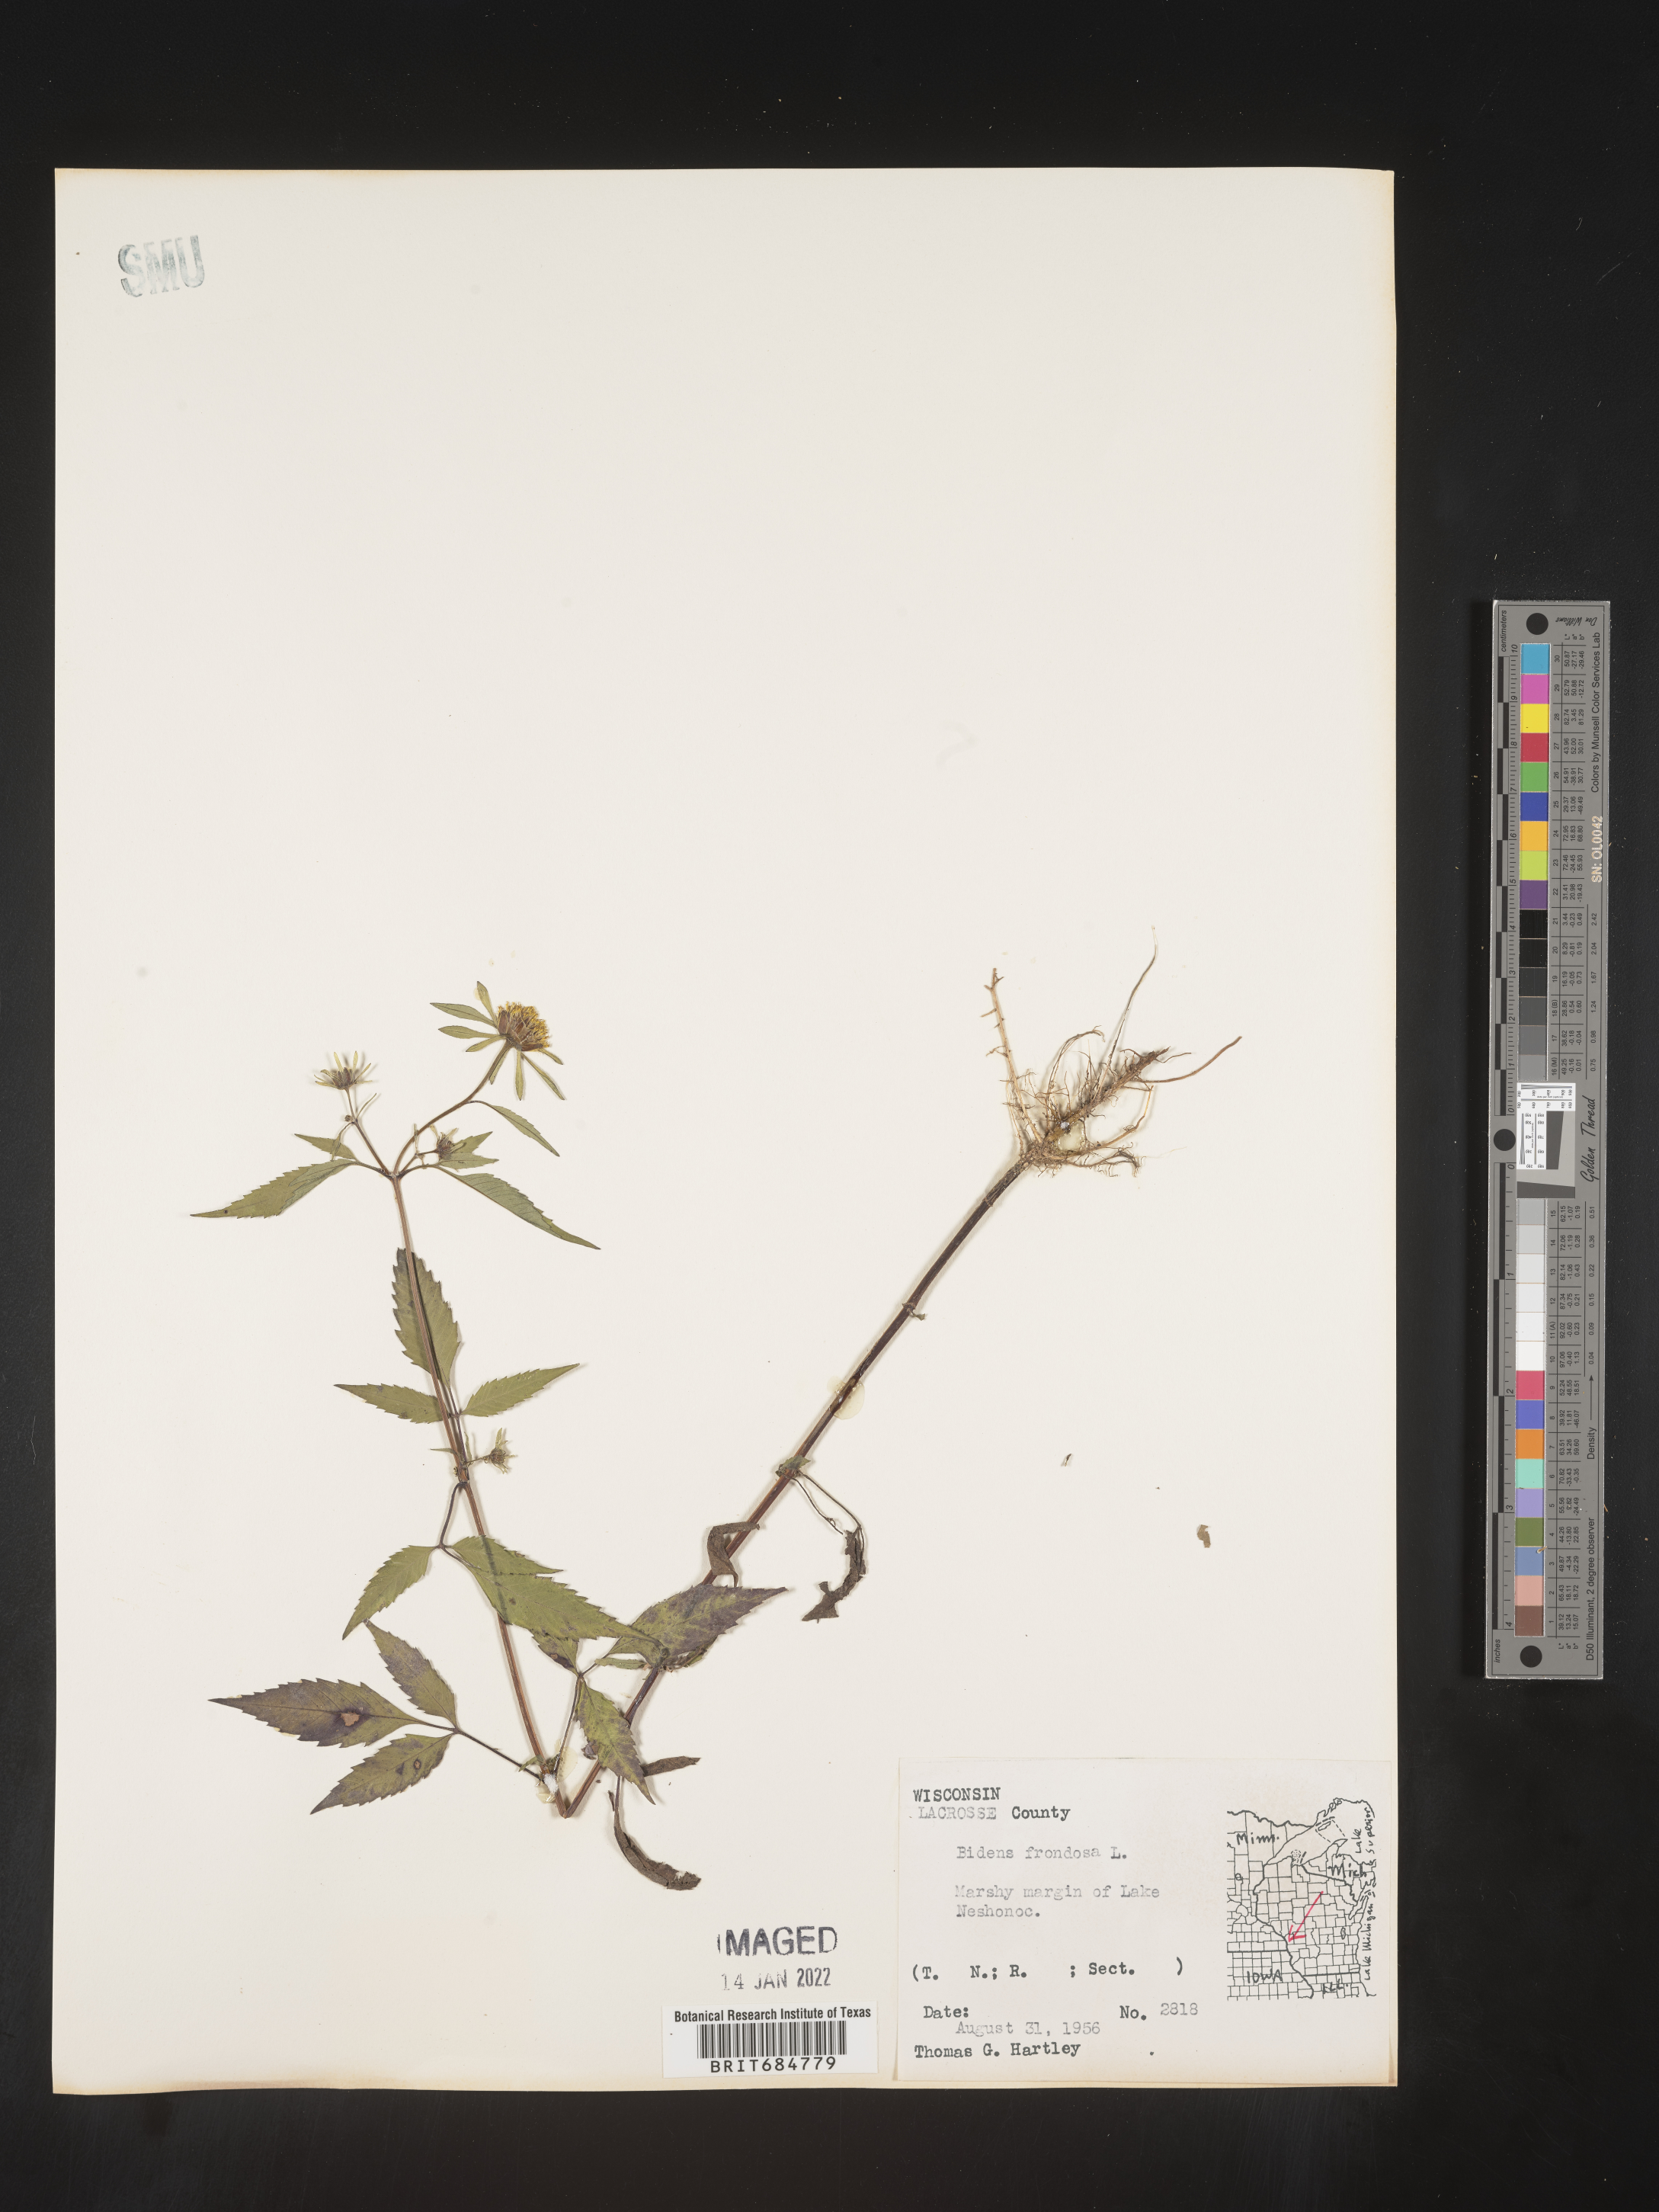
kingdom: Plantae
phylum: Tracheophyta
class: Magnoliopsida
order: Asterales
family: Asteraceae
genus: Bidens
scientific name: Bidens frondosa
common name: Beggarticks
